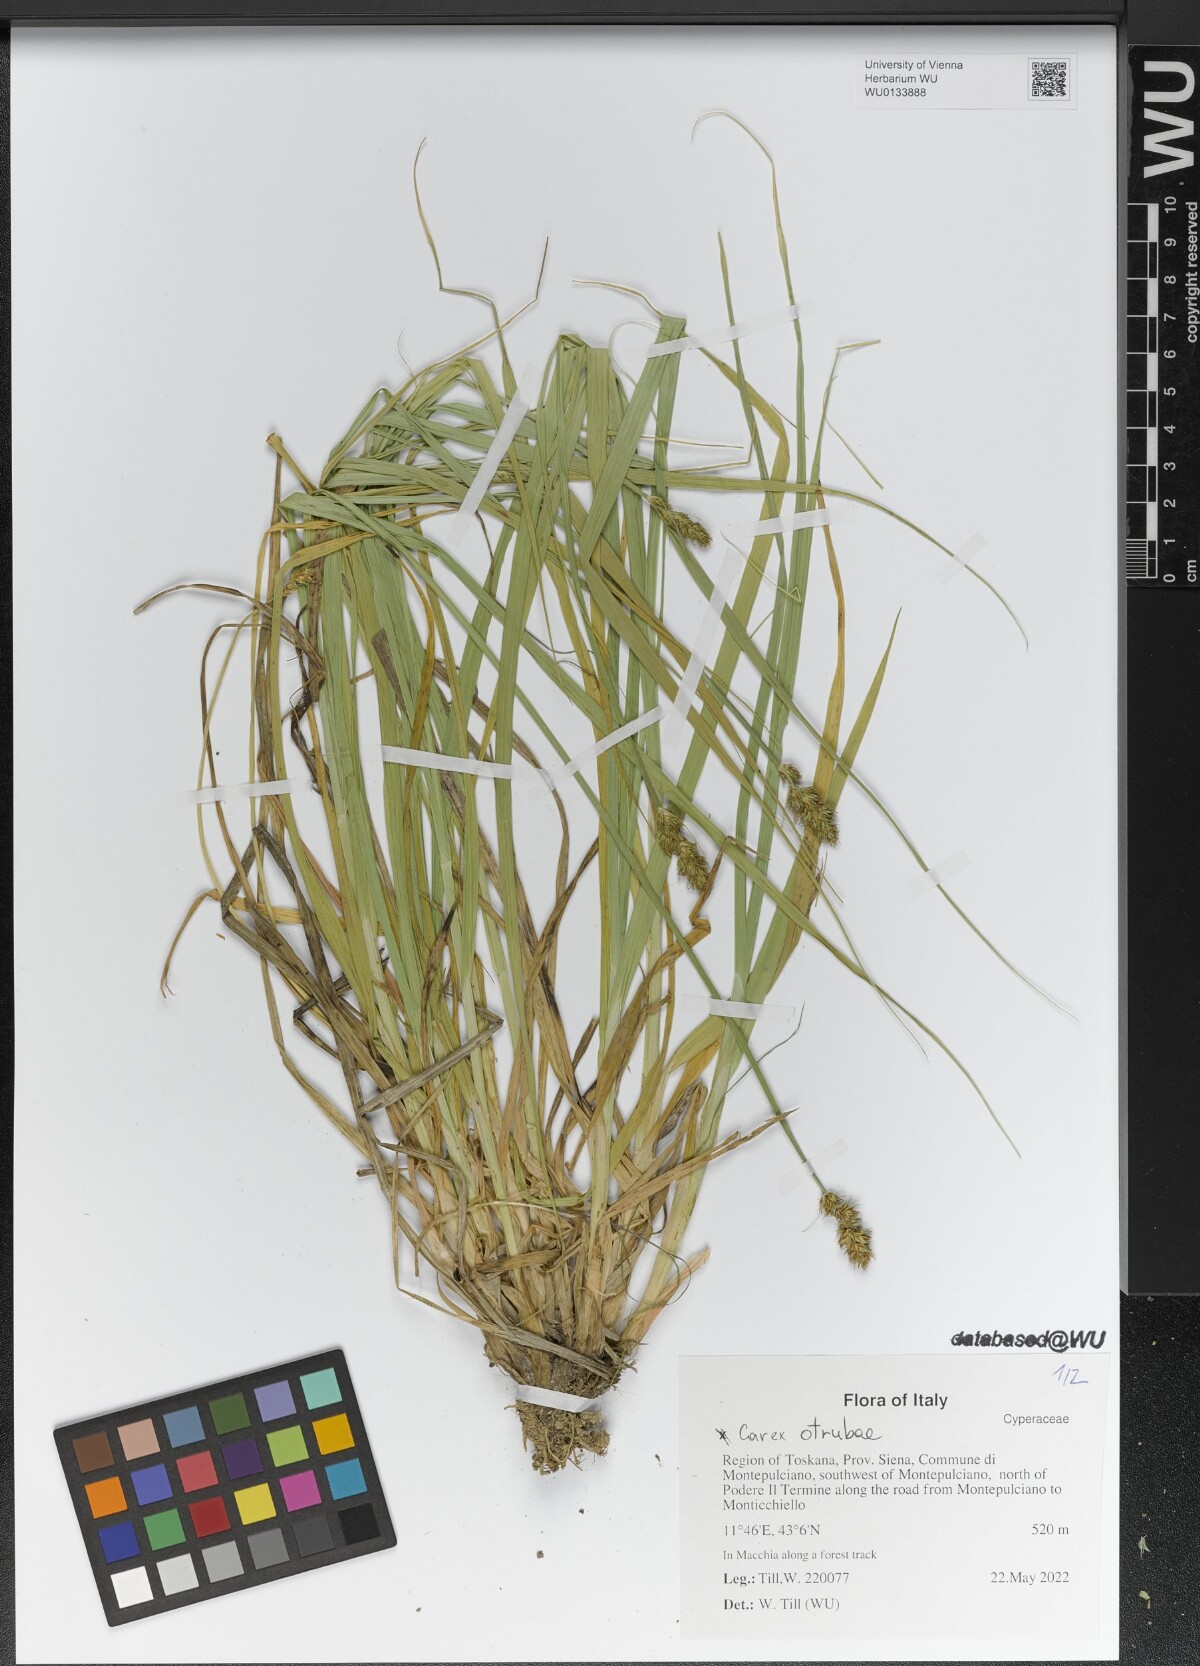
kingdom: Plantae
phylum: Tracheophyta
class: Liliopsida
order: Poales
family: Cyperaceae
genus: Carex
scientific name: Carex otrubae
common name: False fox-sedge
